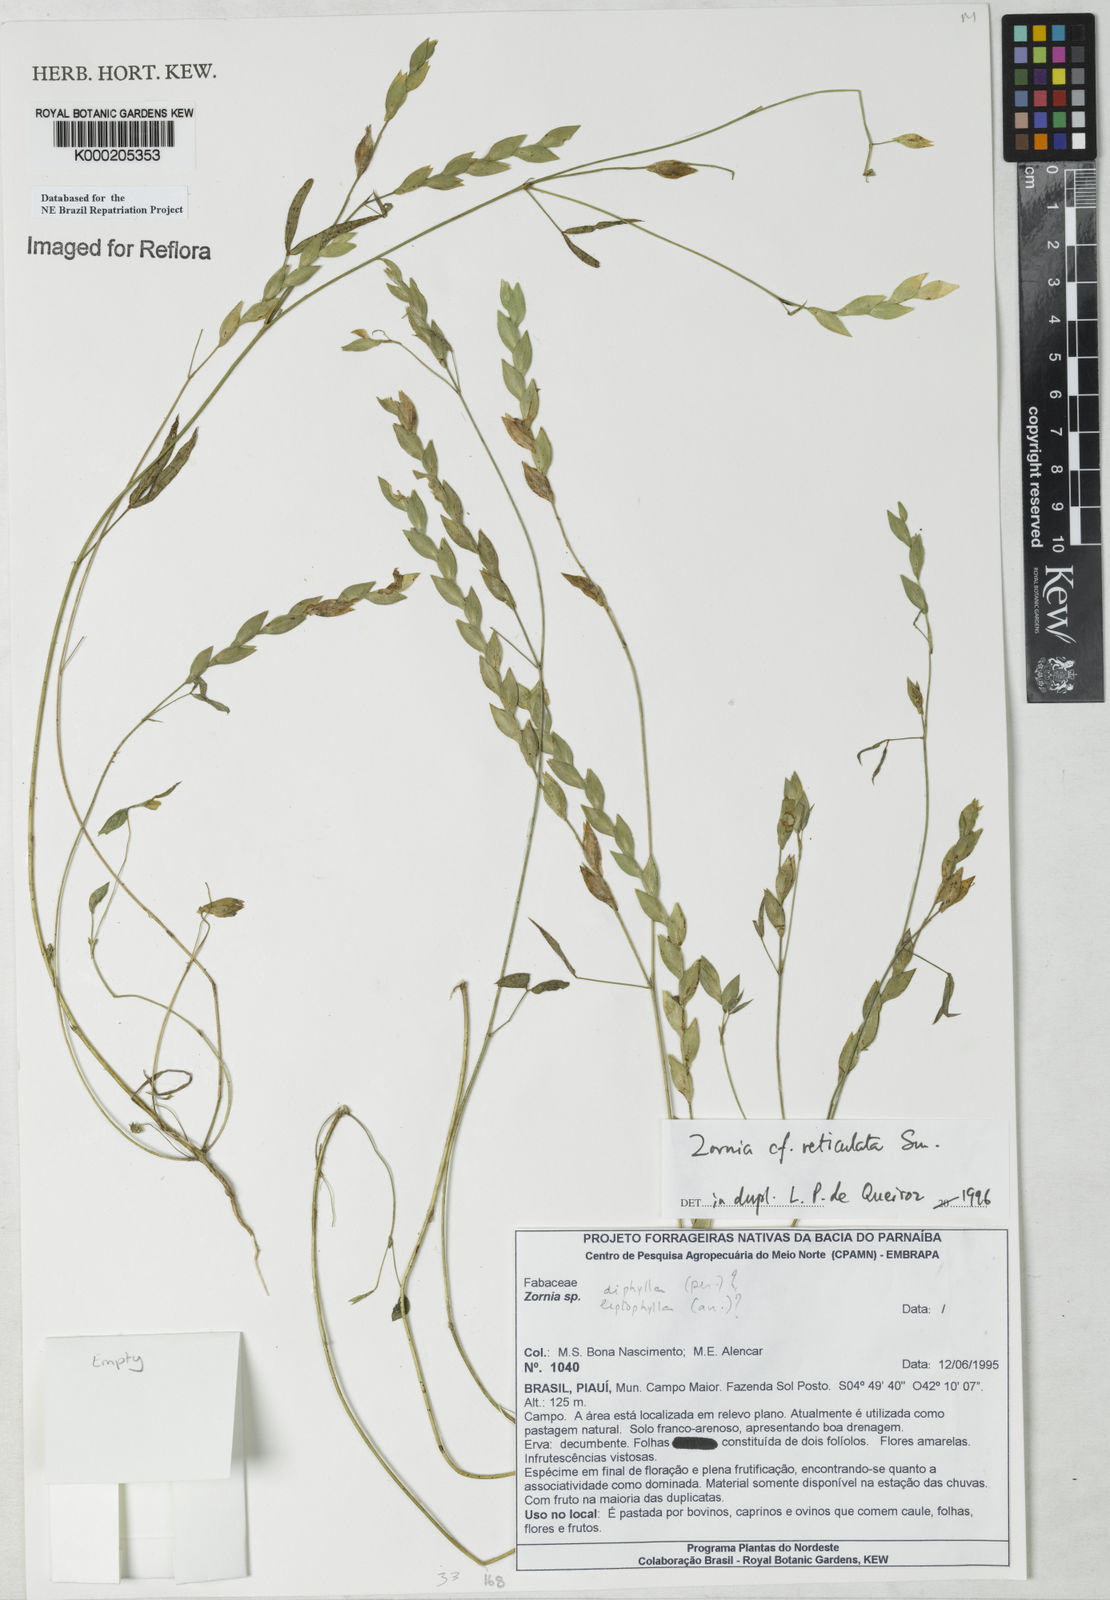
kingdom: Plantae
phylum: Tracheophyta
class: Magnoliopsida
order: Fabales
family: Fabaceae
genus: Zornia
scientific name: Zornia
